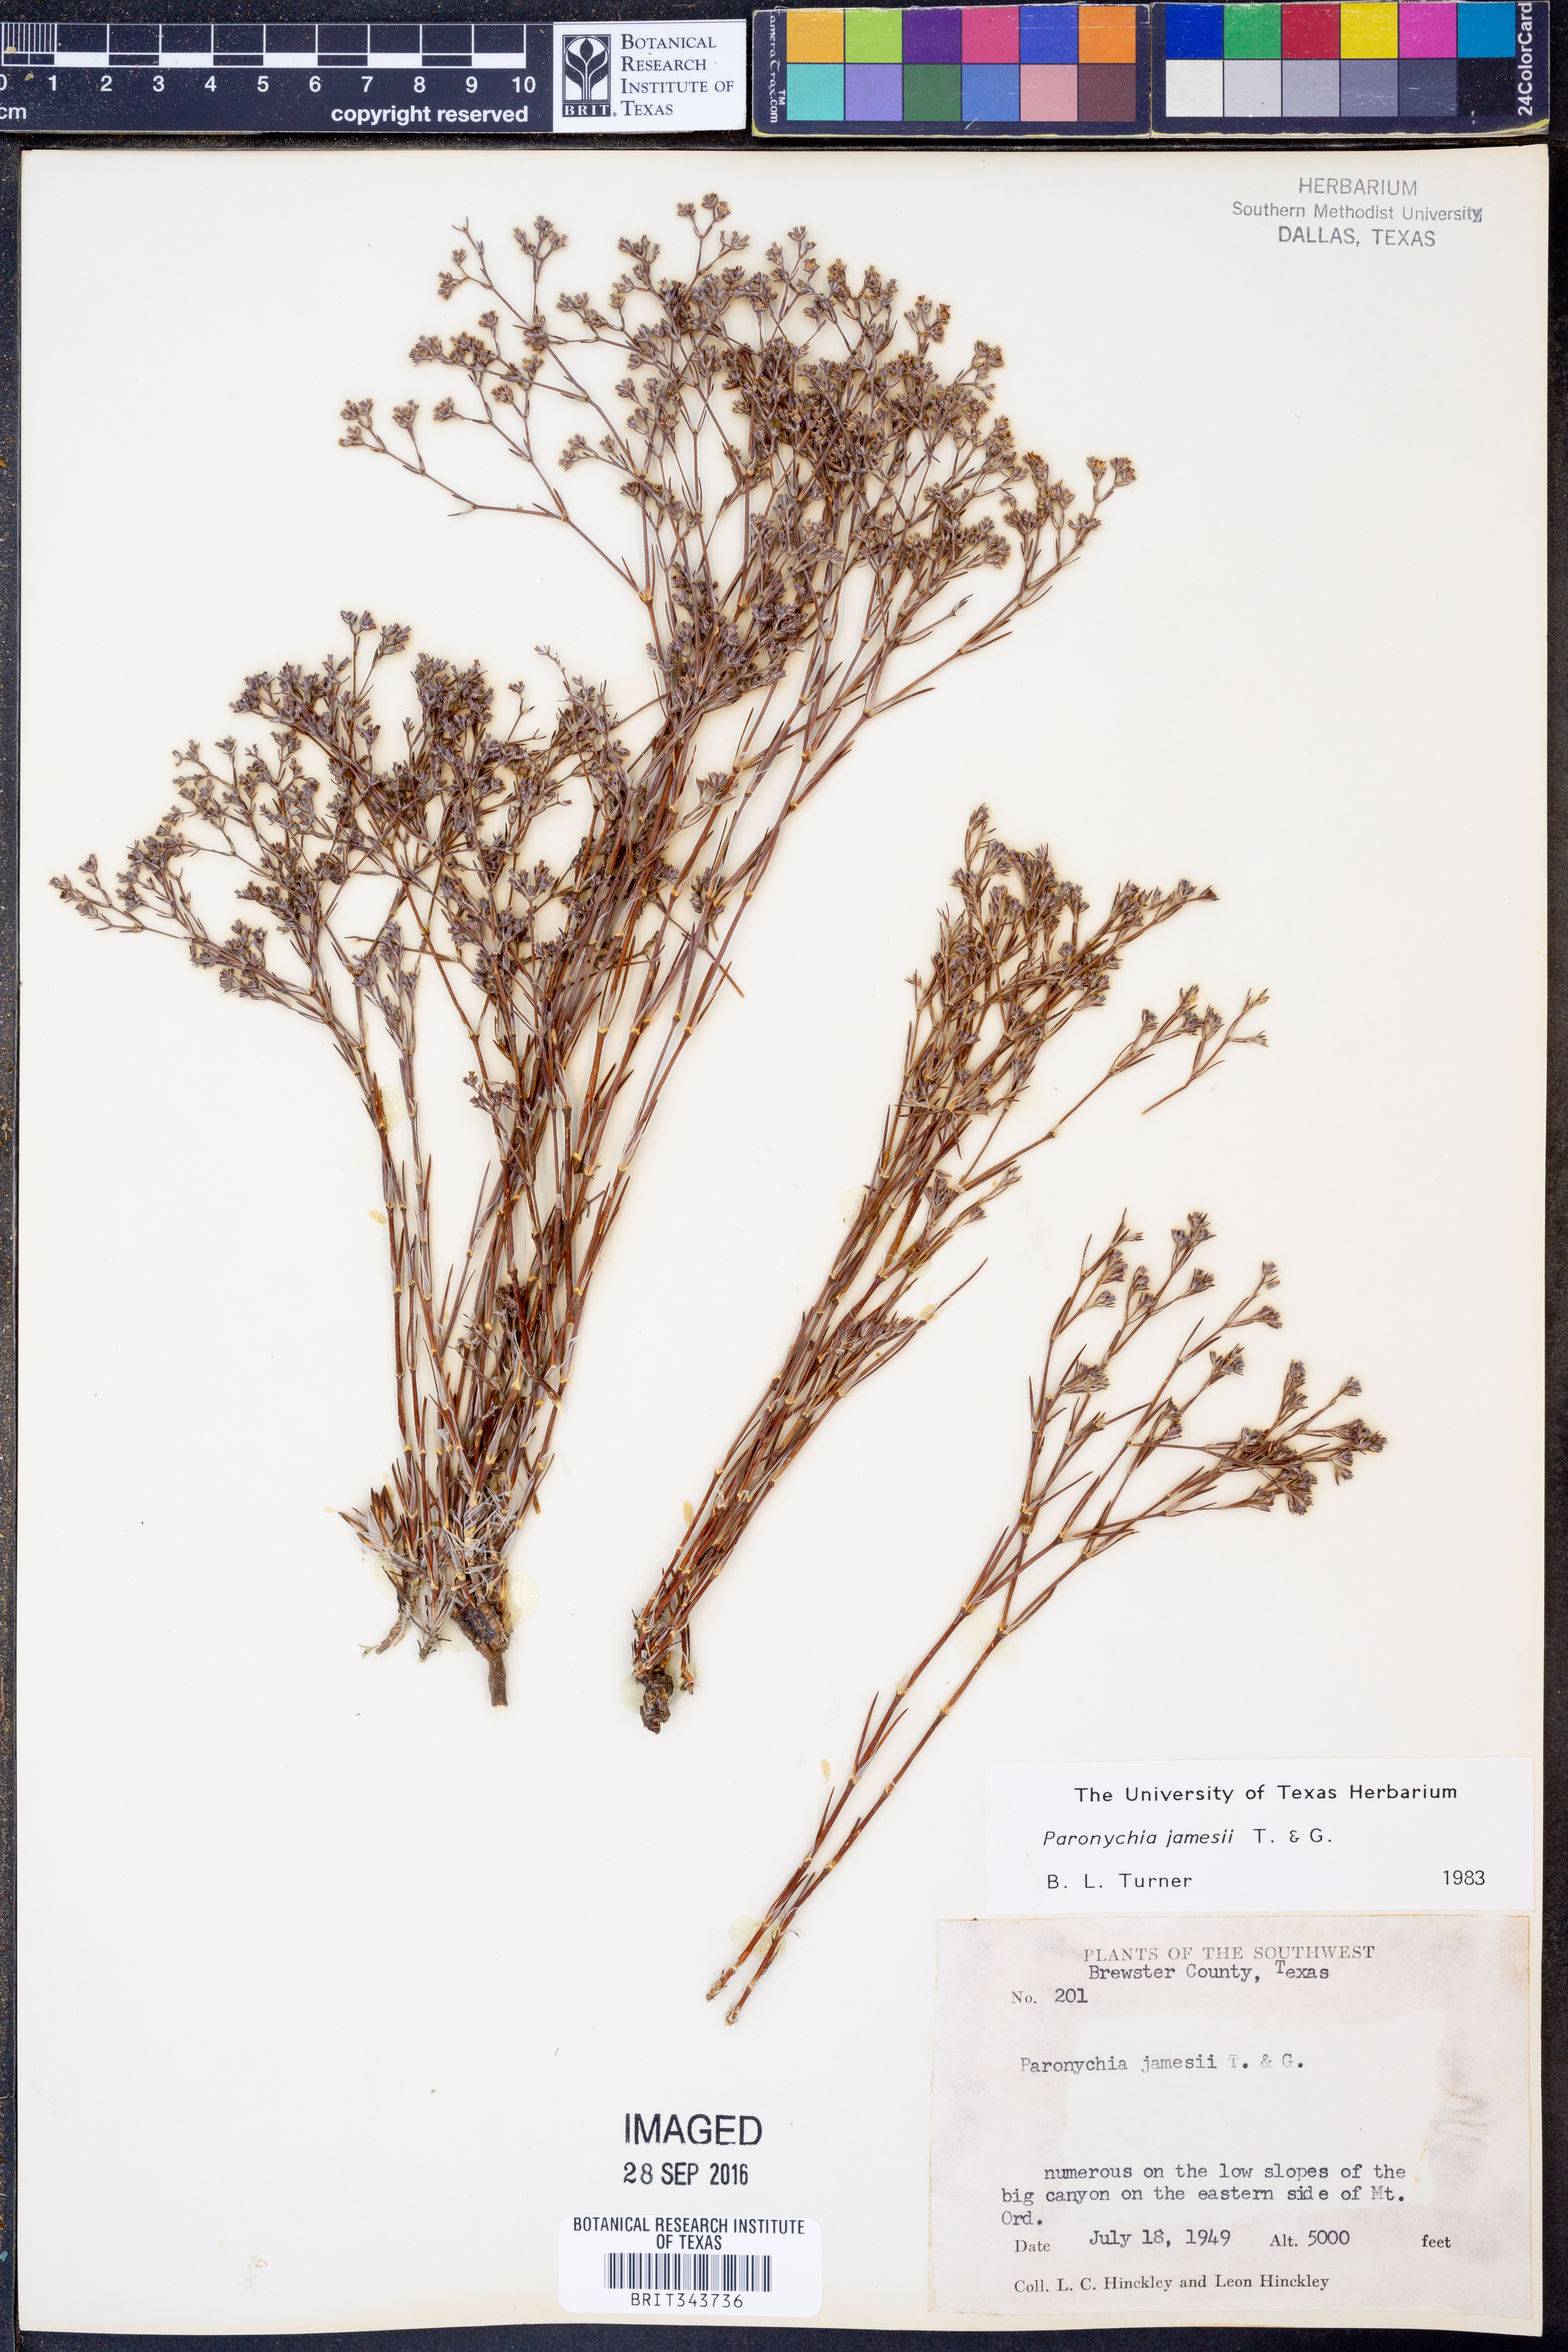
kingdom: Plantae
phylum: Tracheophyta
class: Magnoliopsida
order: Caryophyllales
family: Caryophyllaceae
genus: Paronychia
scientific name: Paronychia jamesii
